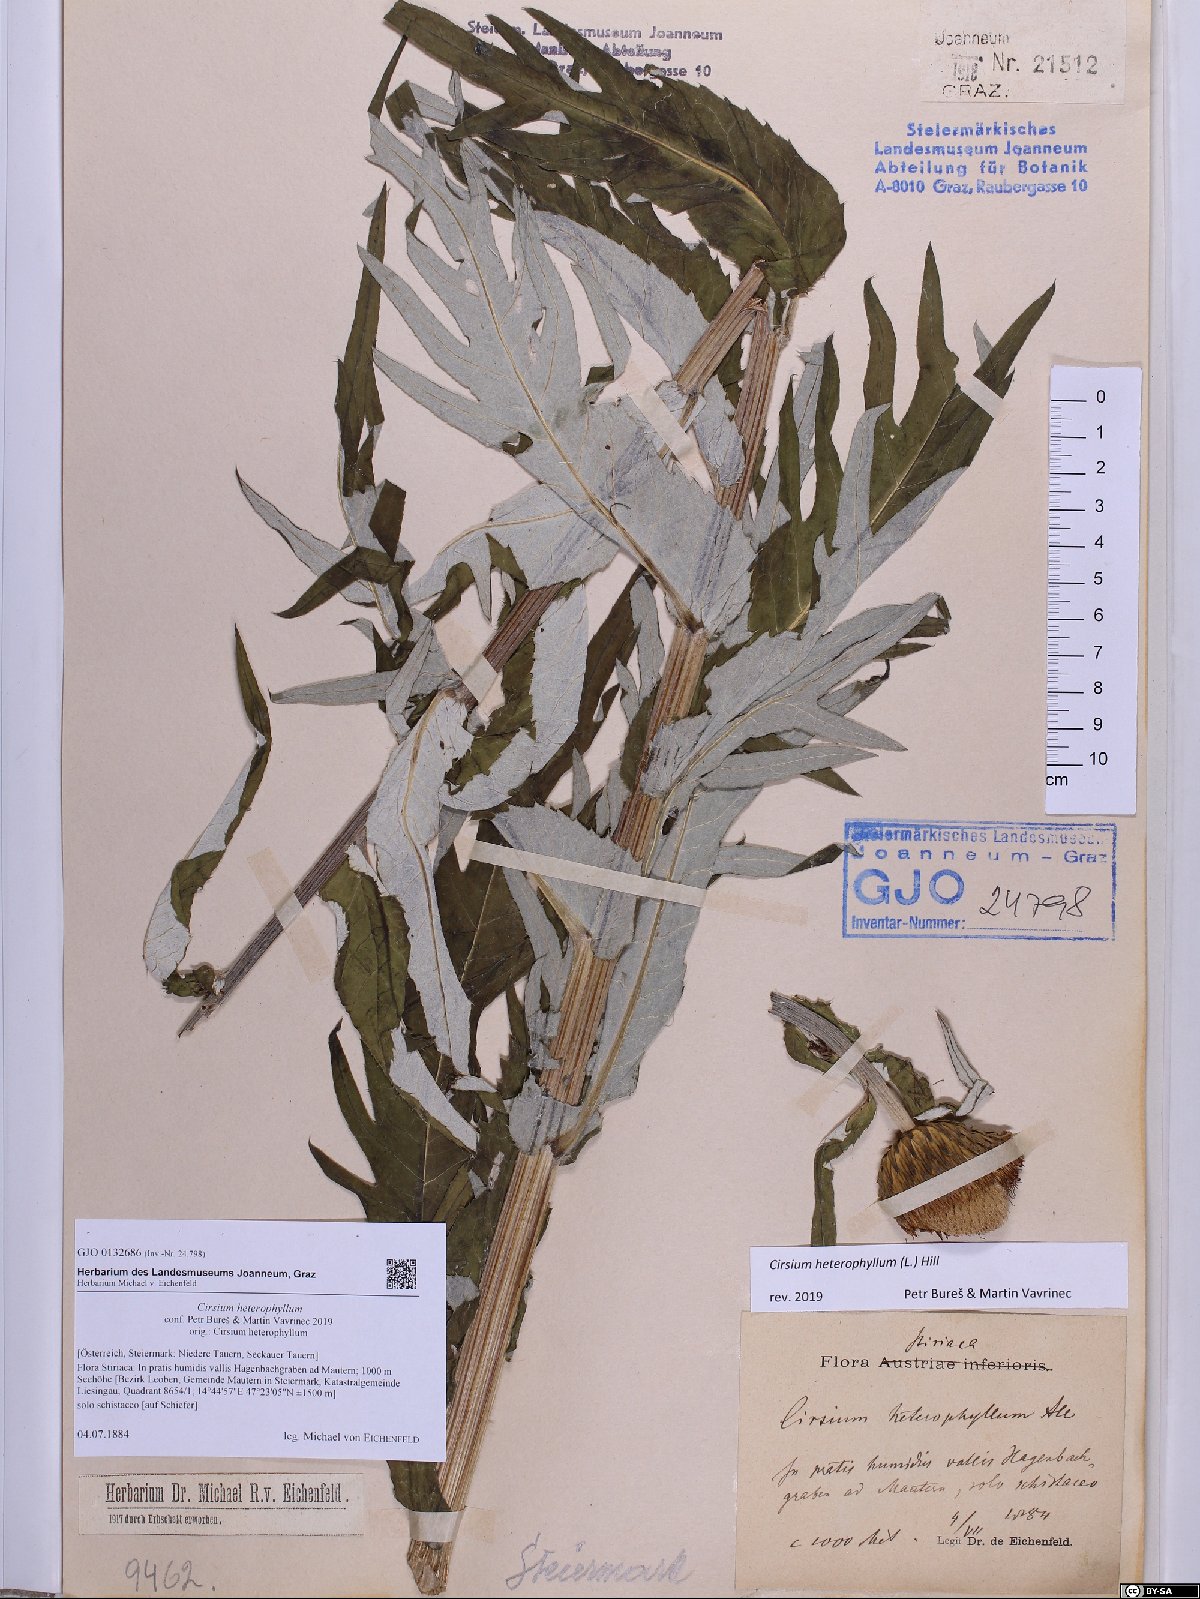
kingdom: Plantae
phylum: Tracheophyta
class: Magnoliopsida
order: Asterales
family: Asteraceae
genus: Cirsium
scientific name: Cirsium heterophyllum
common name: Melancholy thistle
